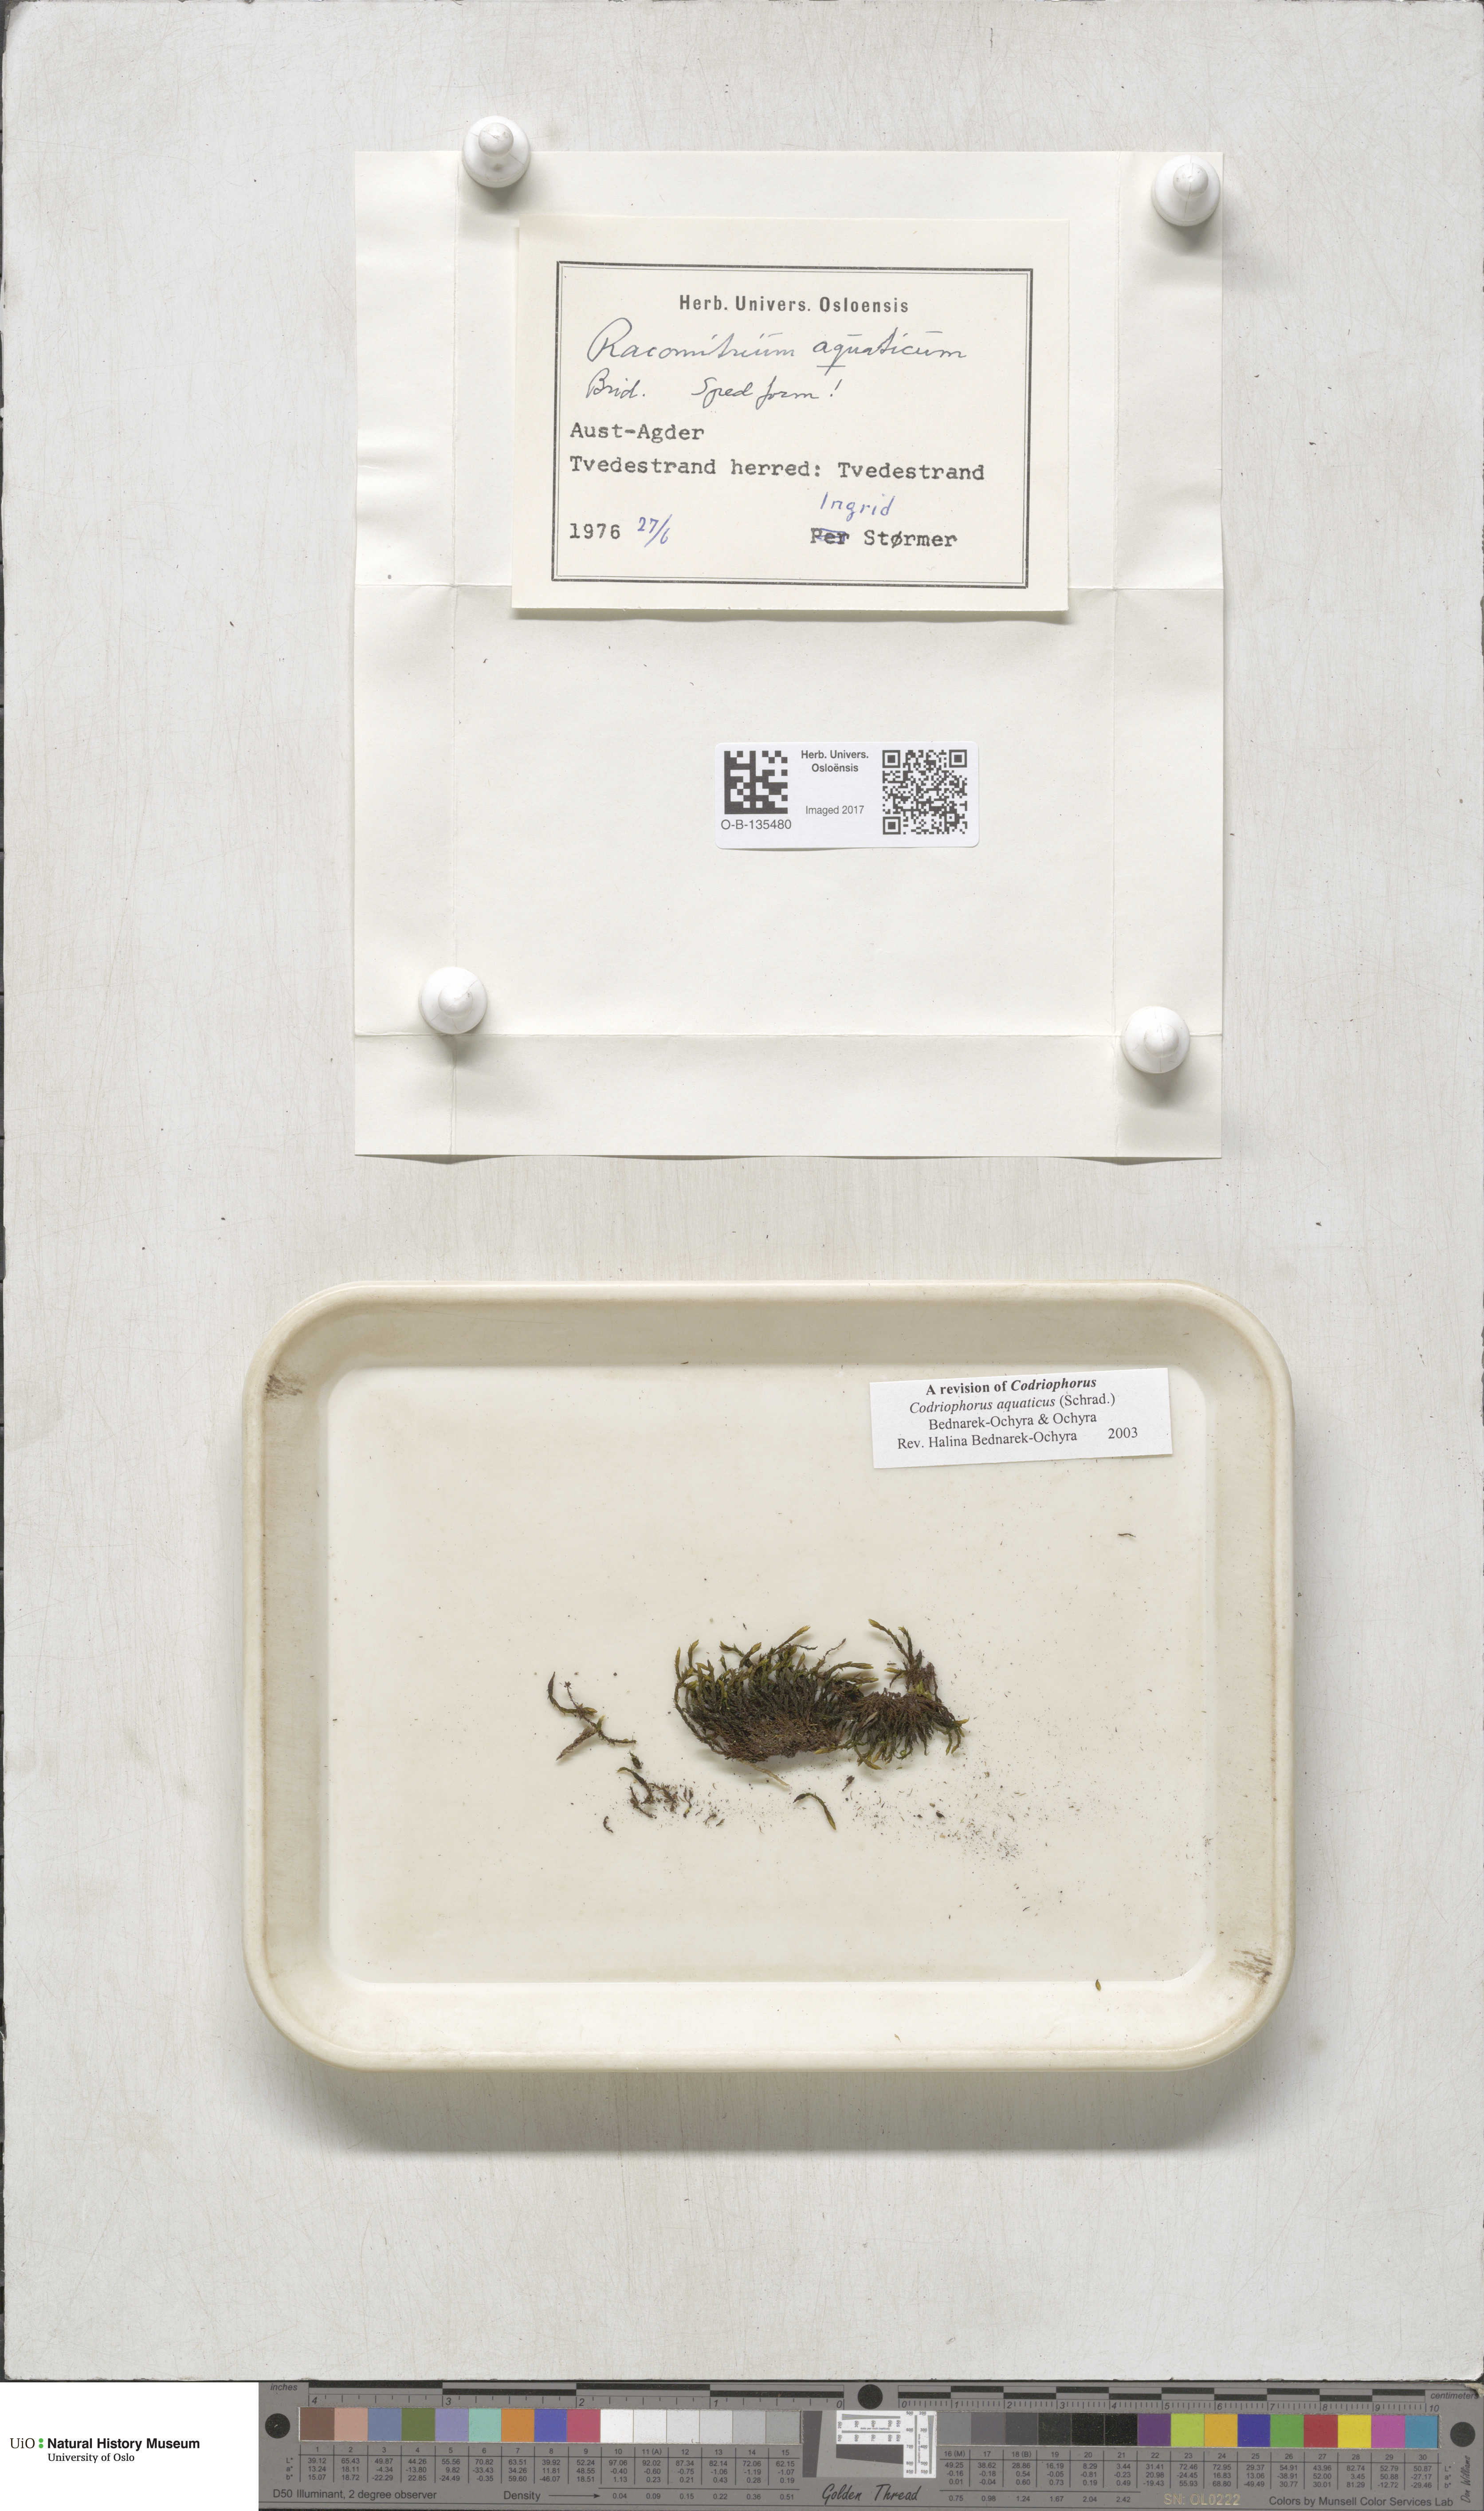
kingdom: Plantae
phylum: Bryophyta
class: Bryopsida
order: Grimmiales
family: Grimmiaceae
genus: Codriophorus
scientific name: Codriophorus aquaticus
